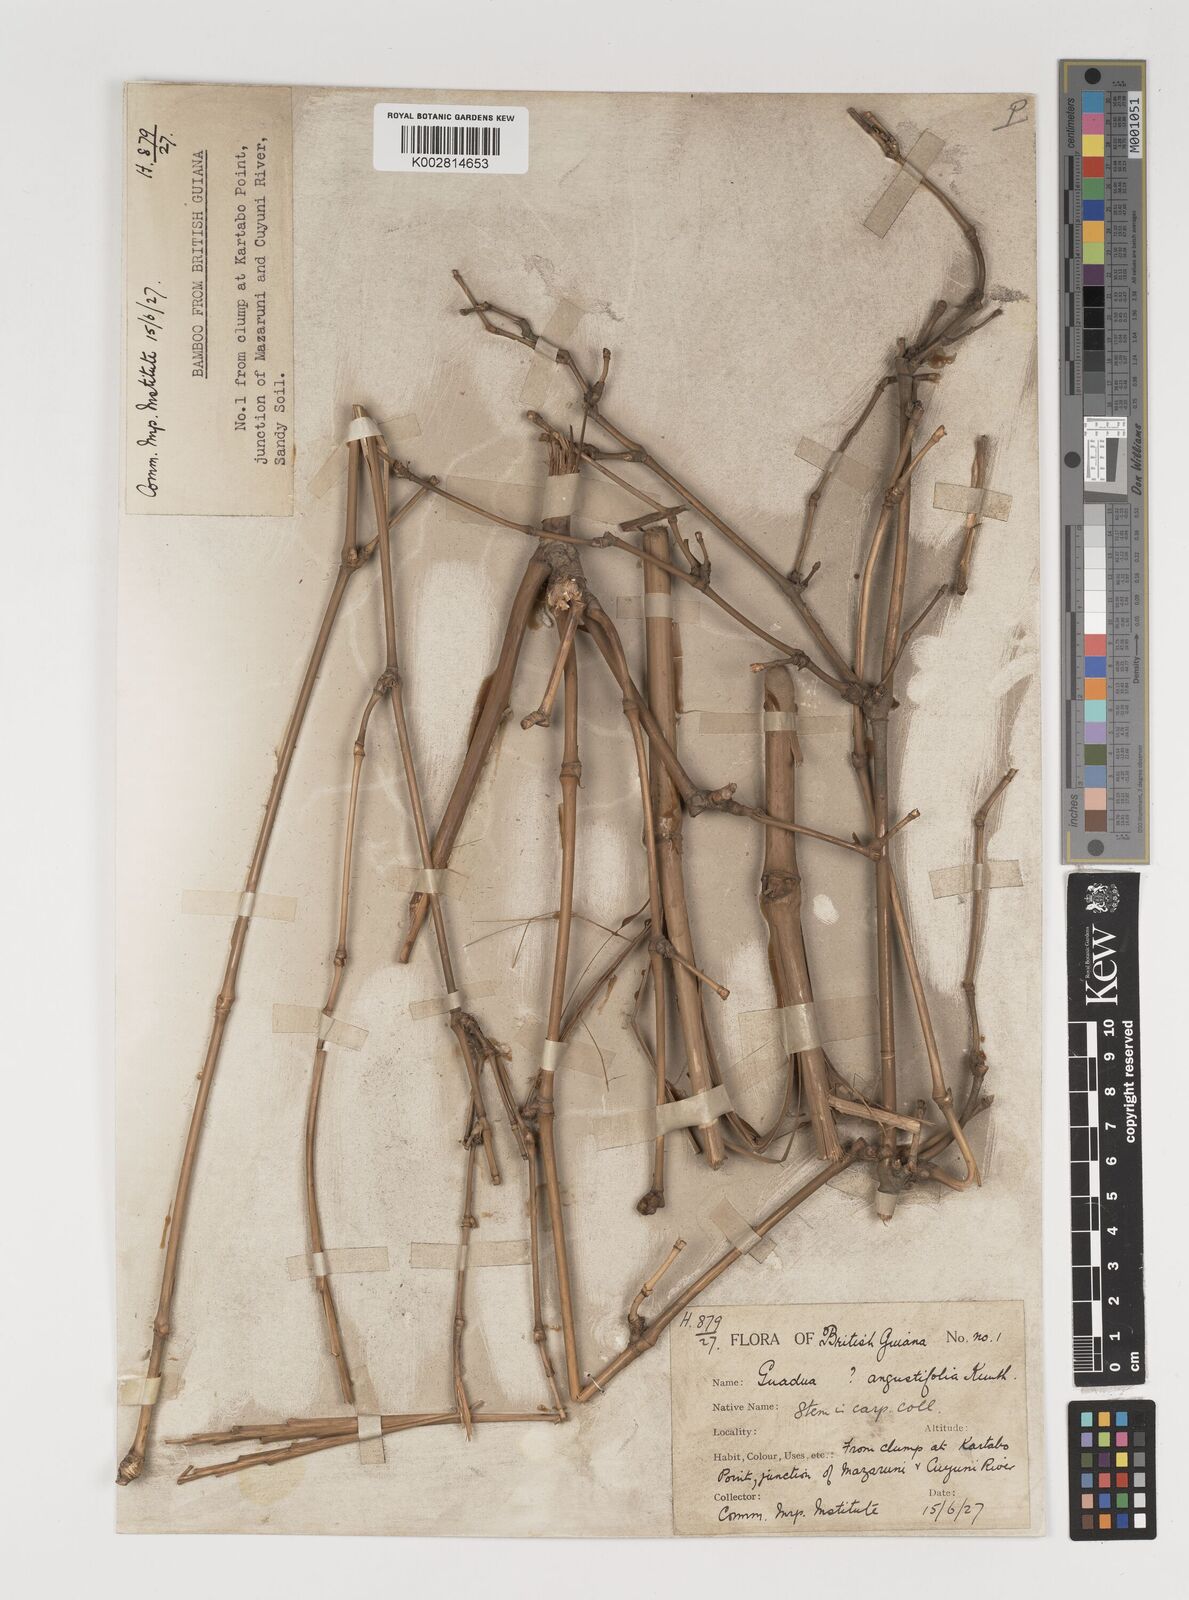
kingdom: Plantae
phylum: Tracheophyta
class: Liliopsida
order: Poales
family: Poaceae
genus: Guadua
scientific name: Guadua angustifolia
